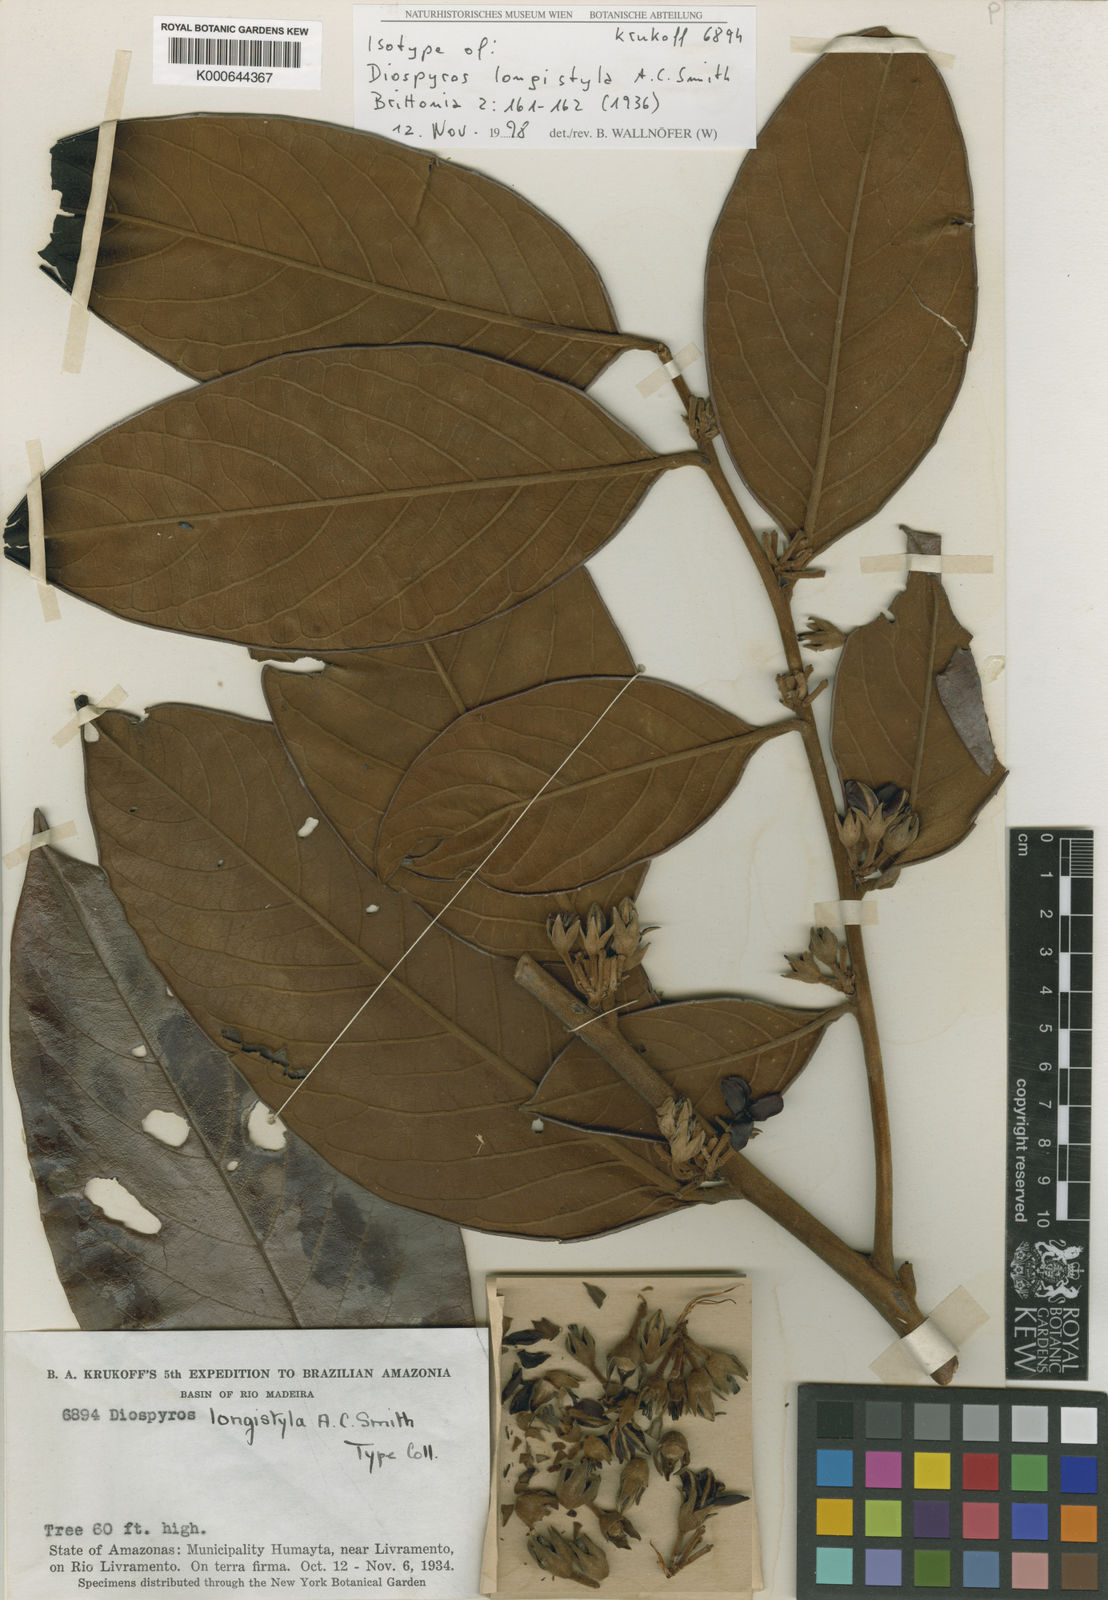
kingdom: Plantae
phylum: Tracheophyta
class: Magnoliopsida
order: Ericales
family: Ebenaceae
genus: Diospyros
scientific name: Diospyros longistyla
